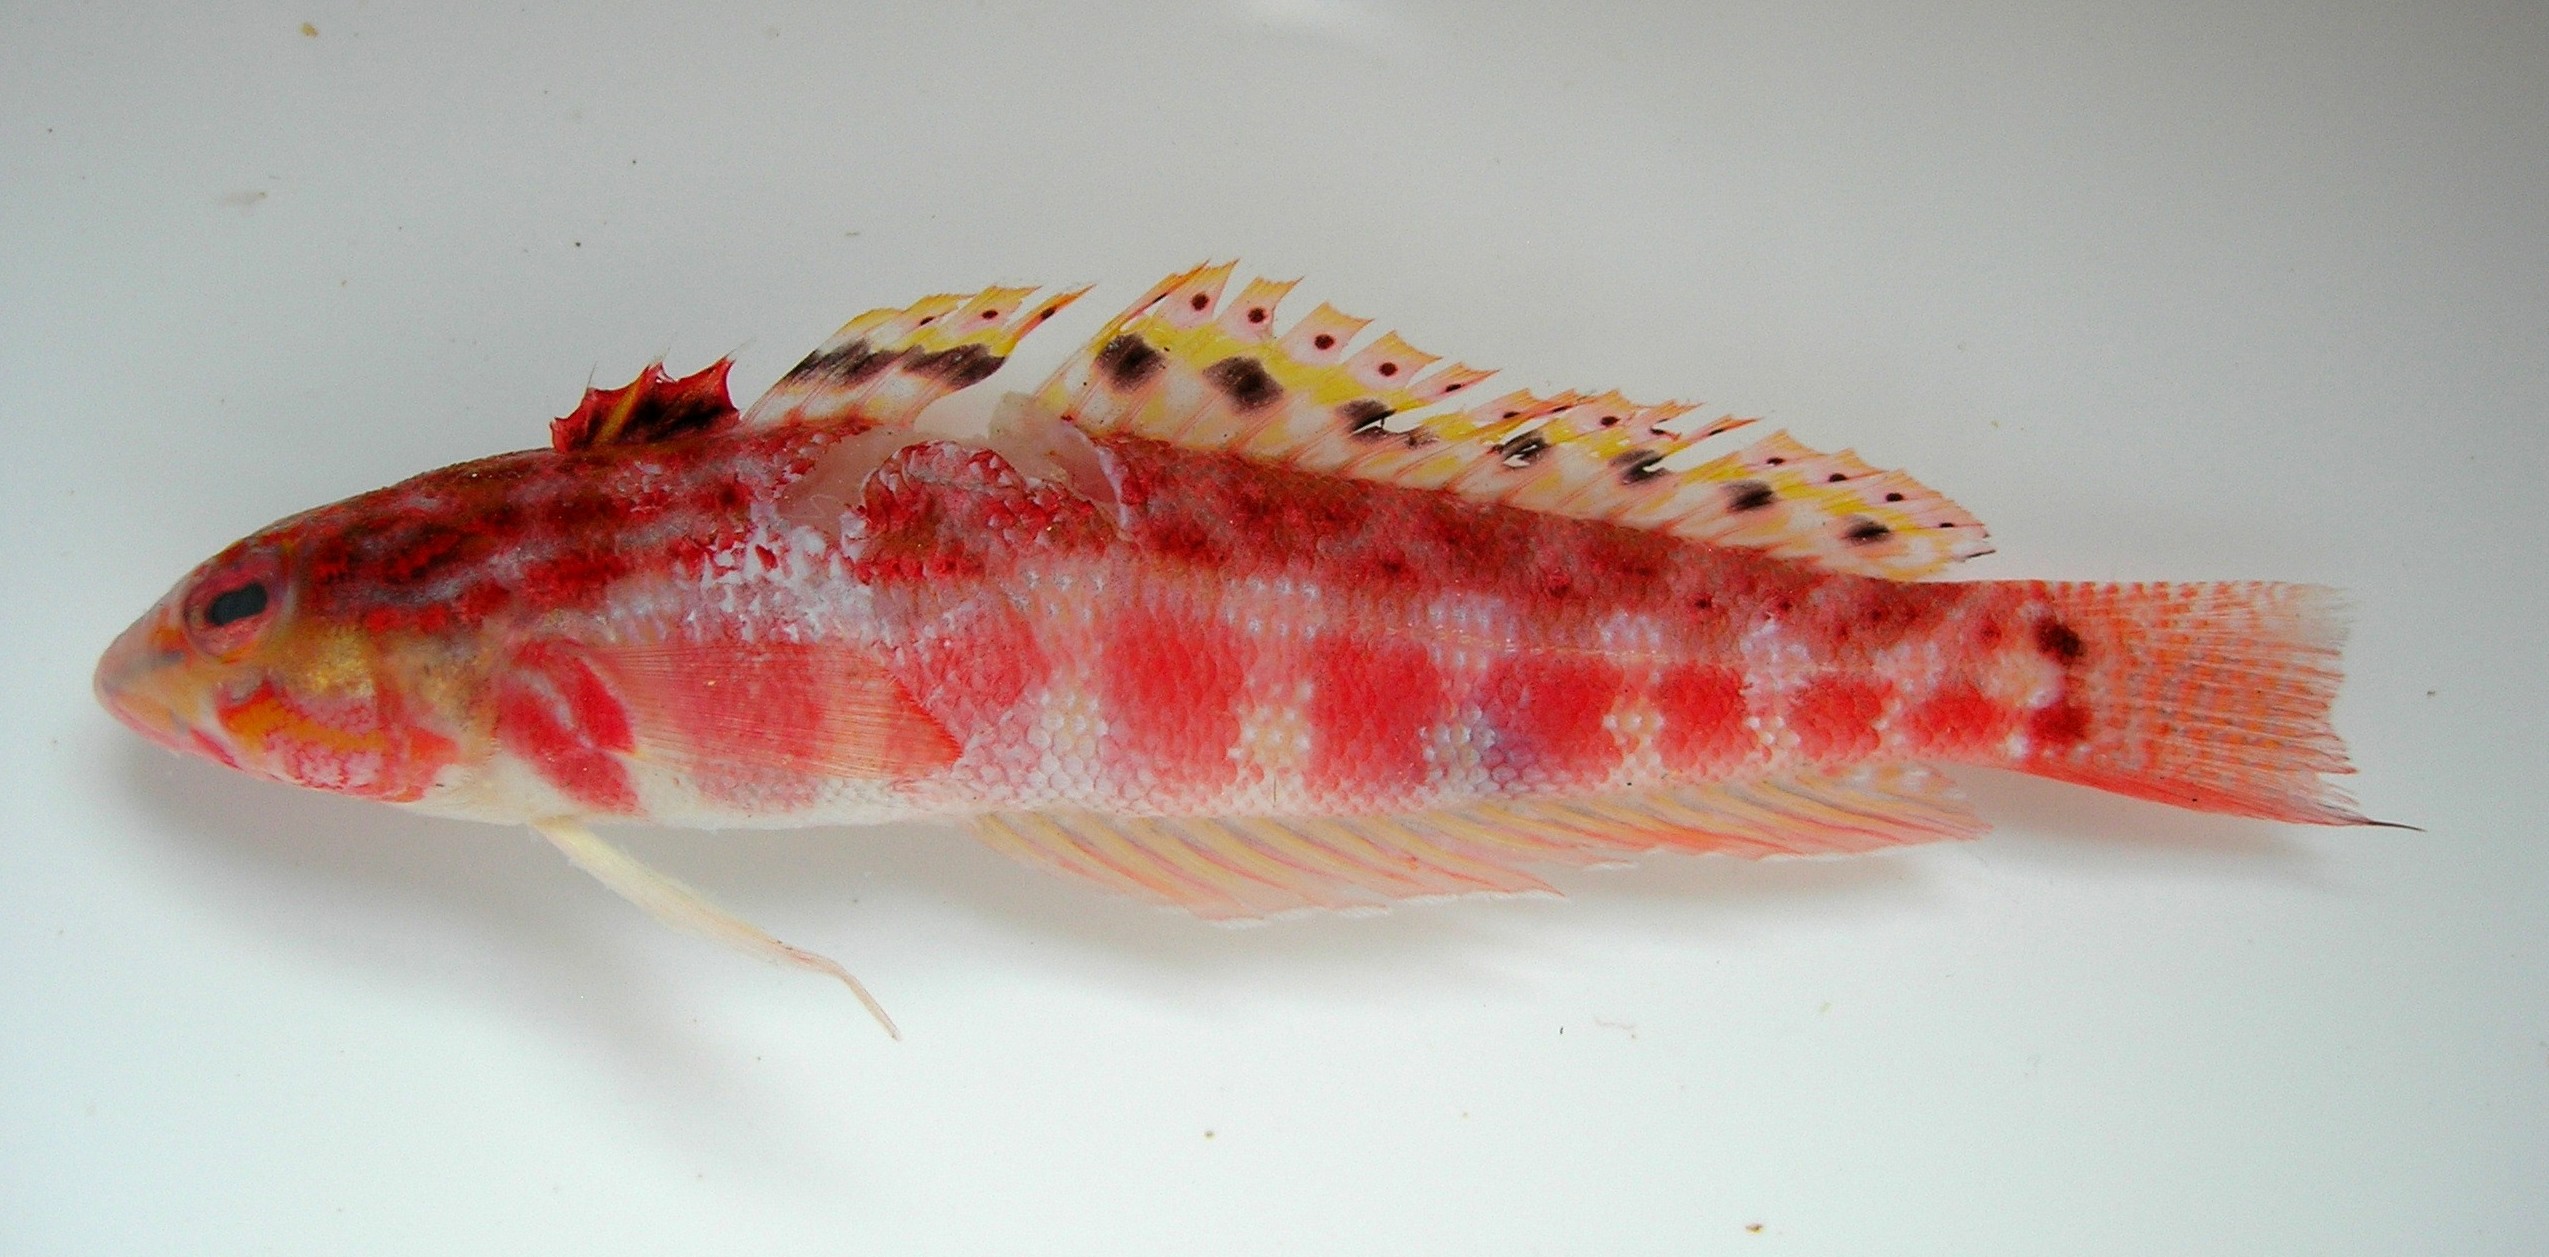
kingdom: Animalia
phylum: Chordata
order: Perciformes
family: Pinguipedidae
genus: Parapercis
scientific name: Parapercis schauinslandii
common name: Redspotted sandperch
